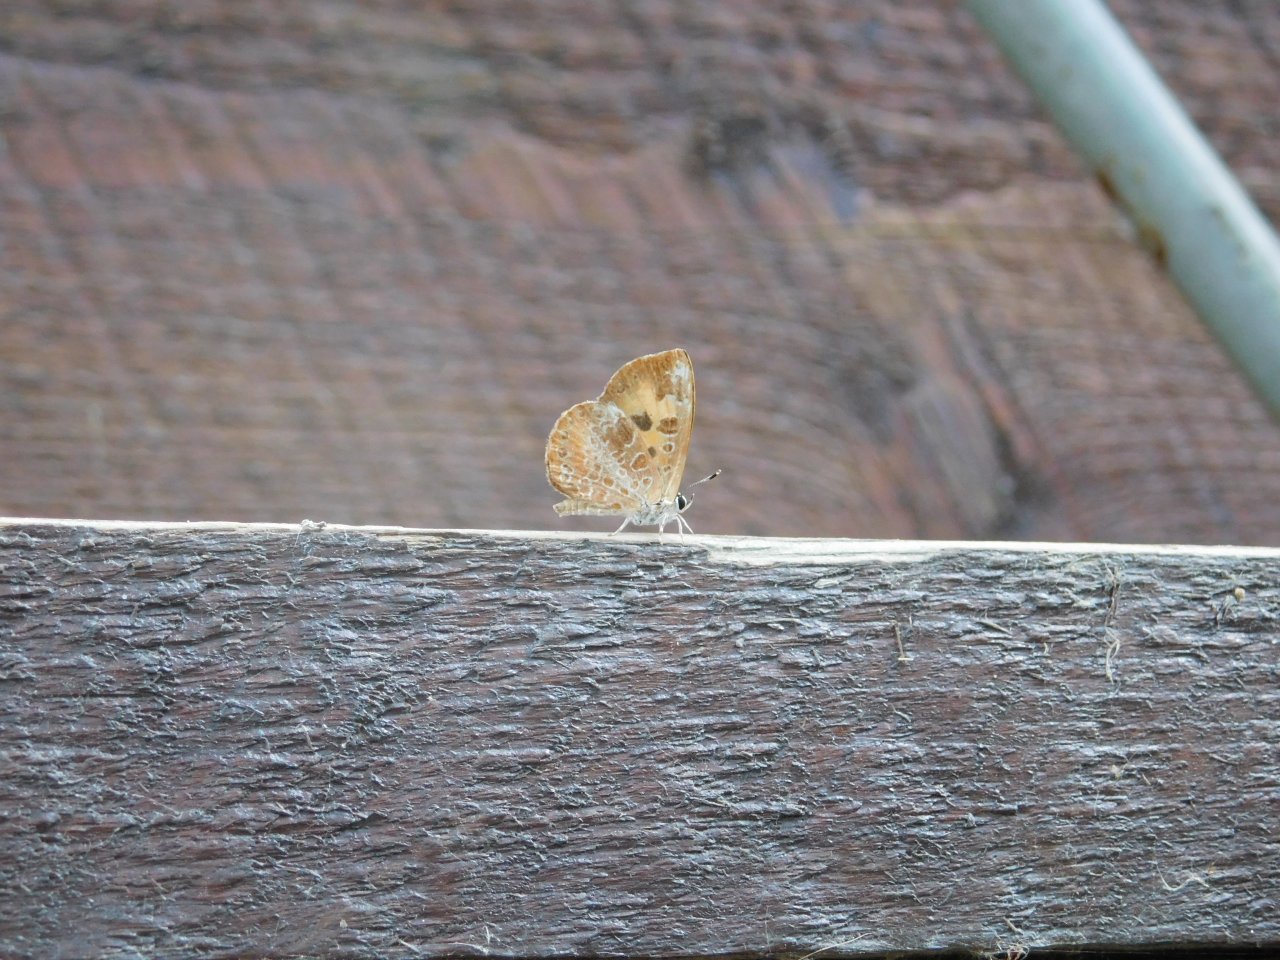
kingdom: Animalia
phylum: Arthropoda
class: Insecta
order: Lepidoptera
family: Lycaenidae
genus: Feniseca
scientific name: Feniseca tarquinius
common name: Harvester
